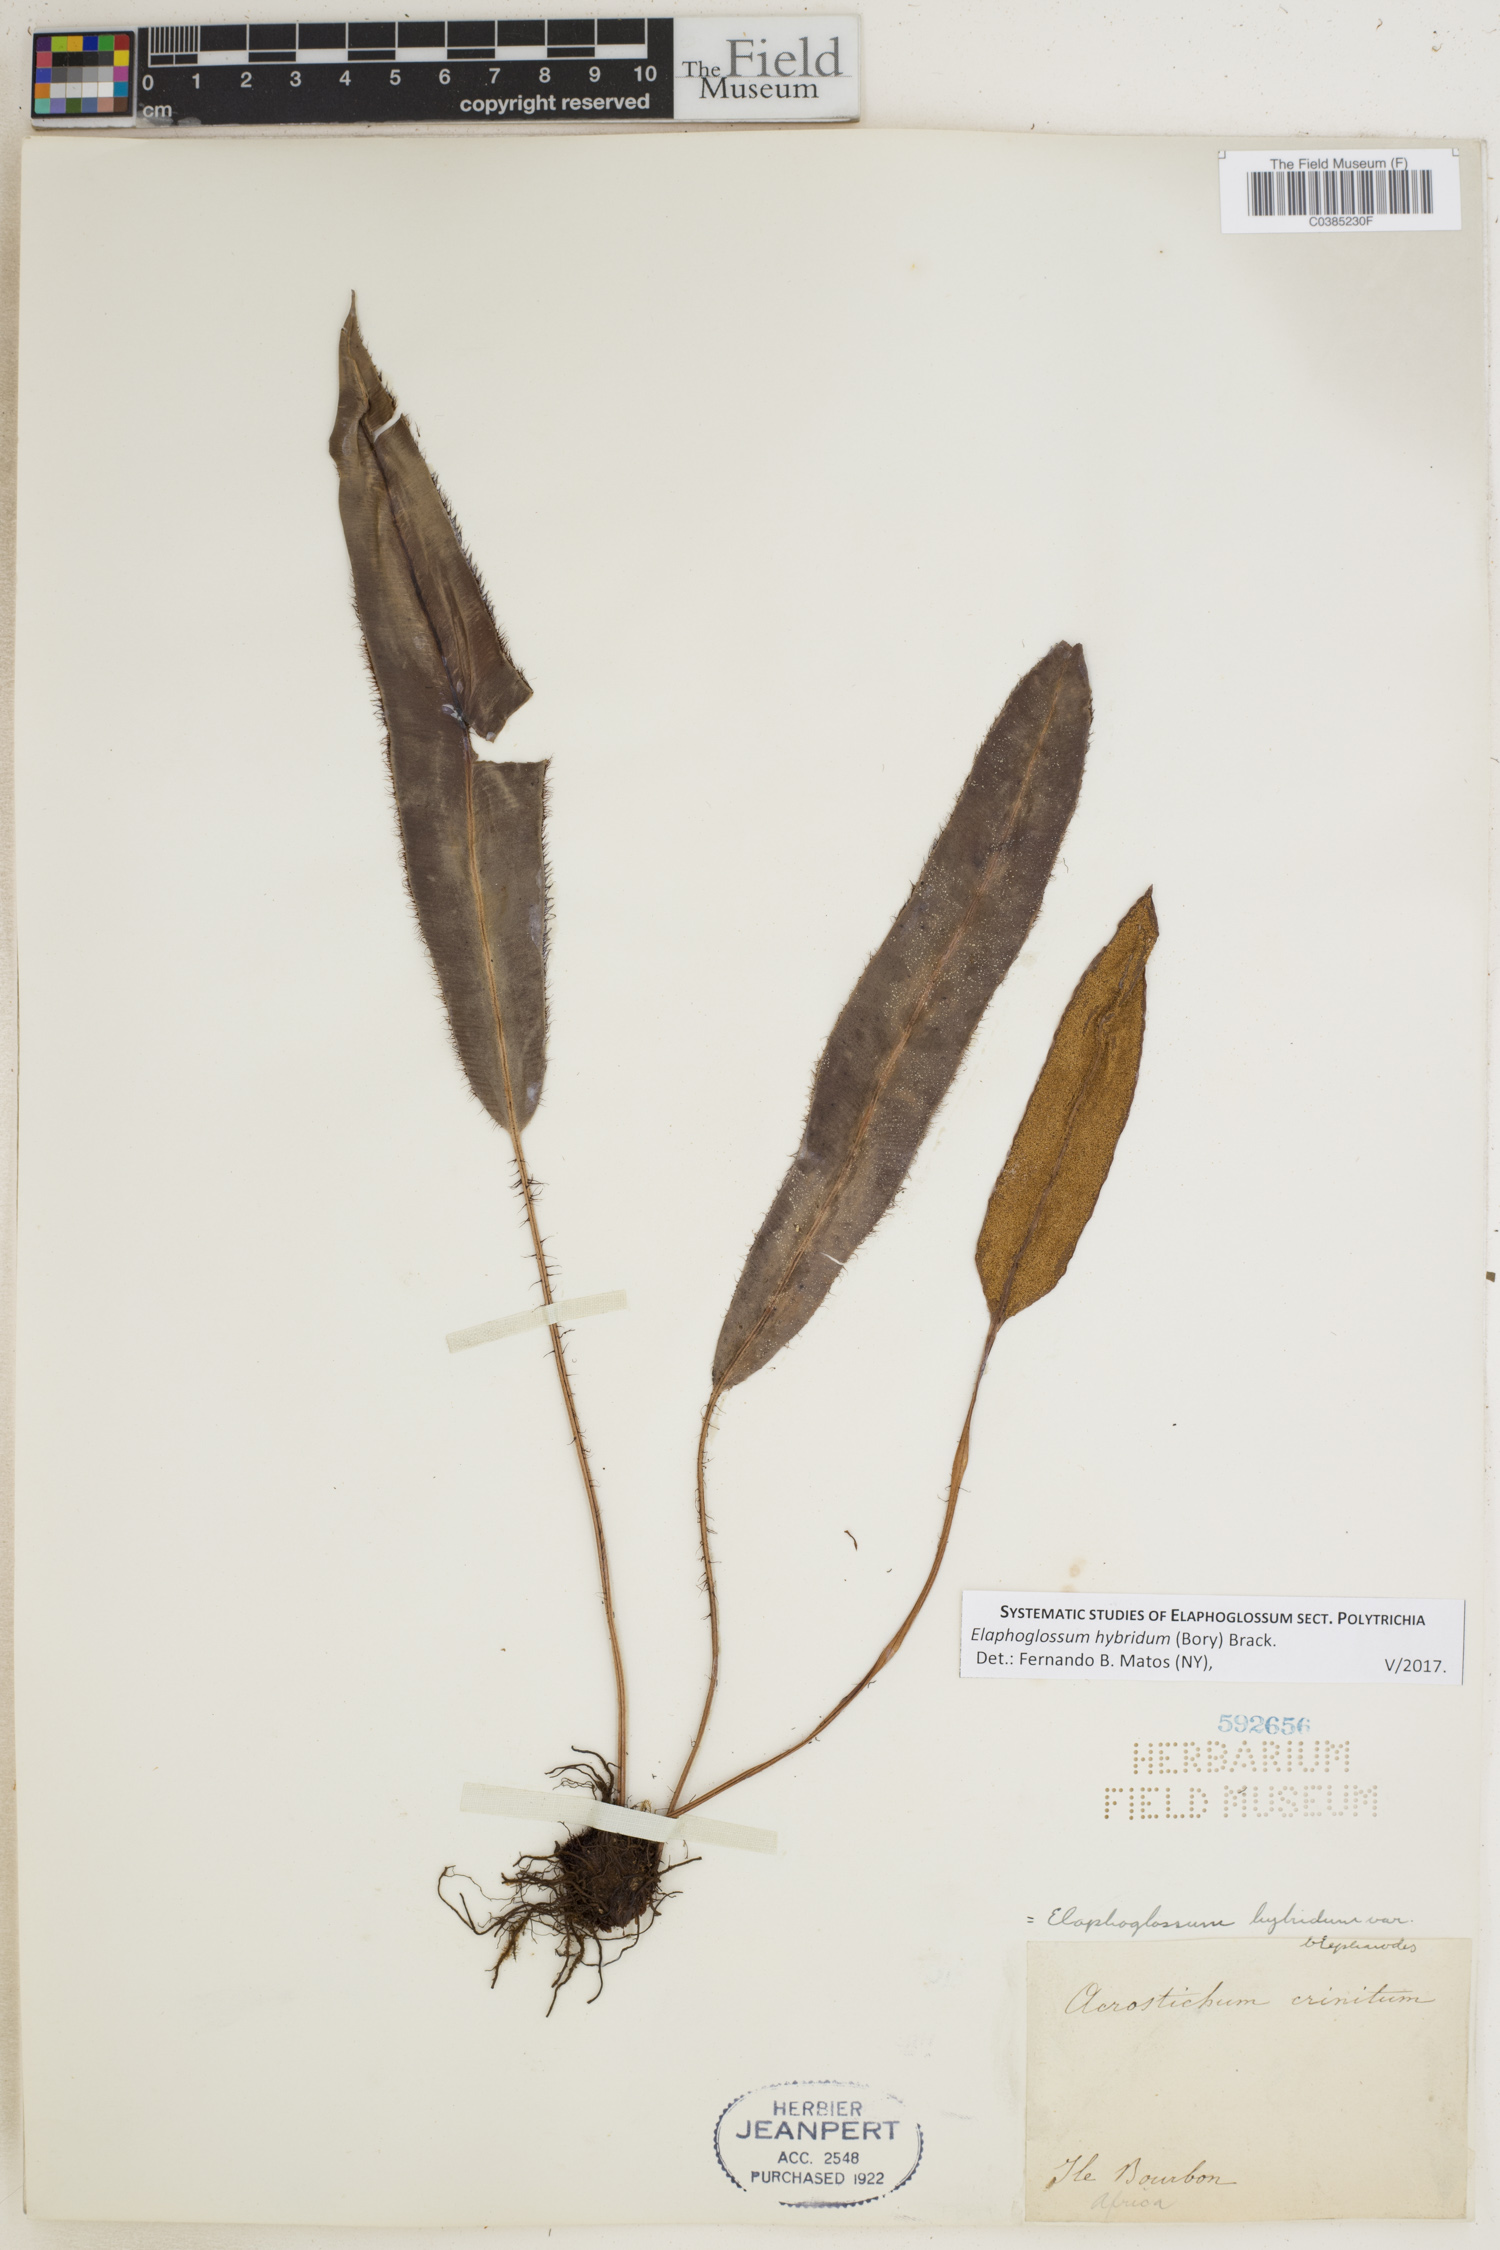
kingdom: Plantae
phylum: Tracheophyta
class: Polypodiopsida
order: Polypodiales
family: Dryopteridaceae
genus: Elaphoglossum
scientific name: Elaphoglossum hybridum
